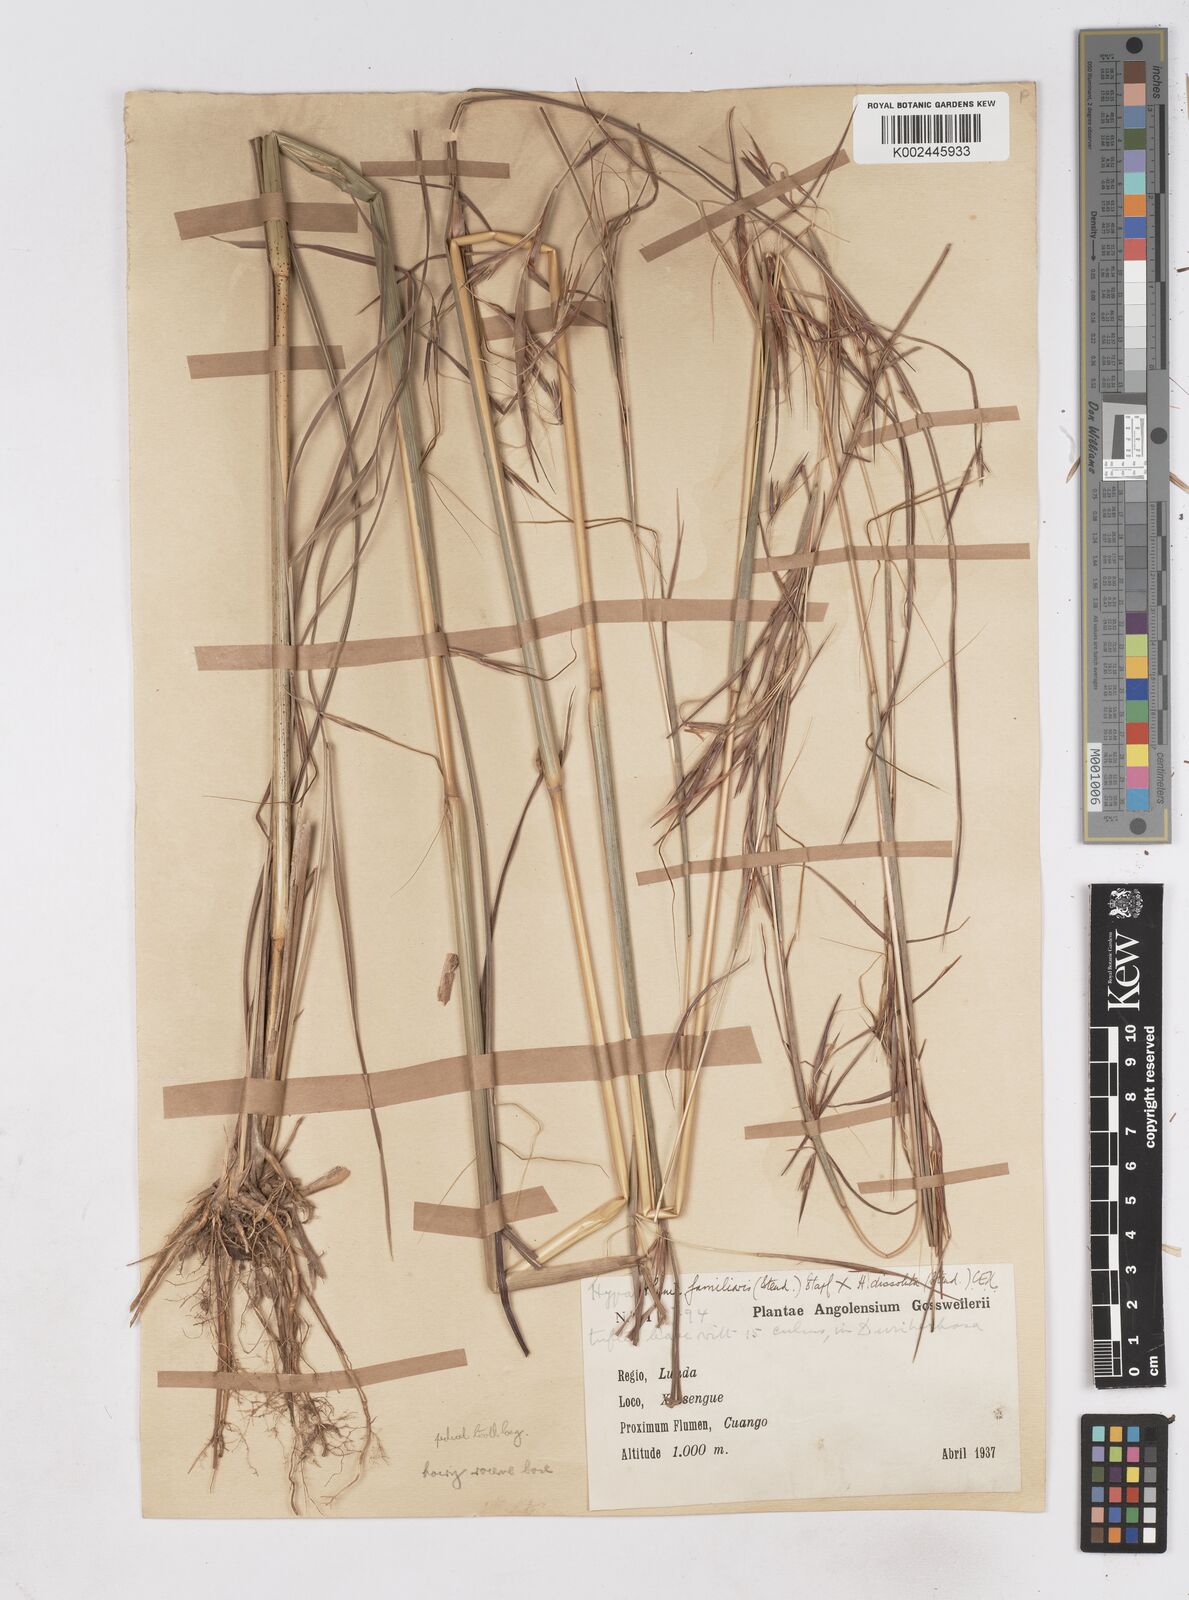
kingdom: Plantae
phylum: Tracheophyta
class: Liliopsida
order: Poales
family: Poaceae
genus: Hyperthelia
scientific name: Hyperthelia dissoluta
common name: Yellow thatching grass
